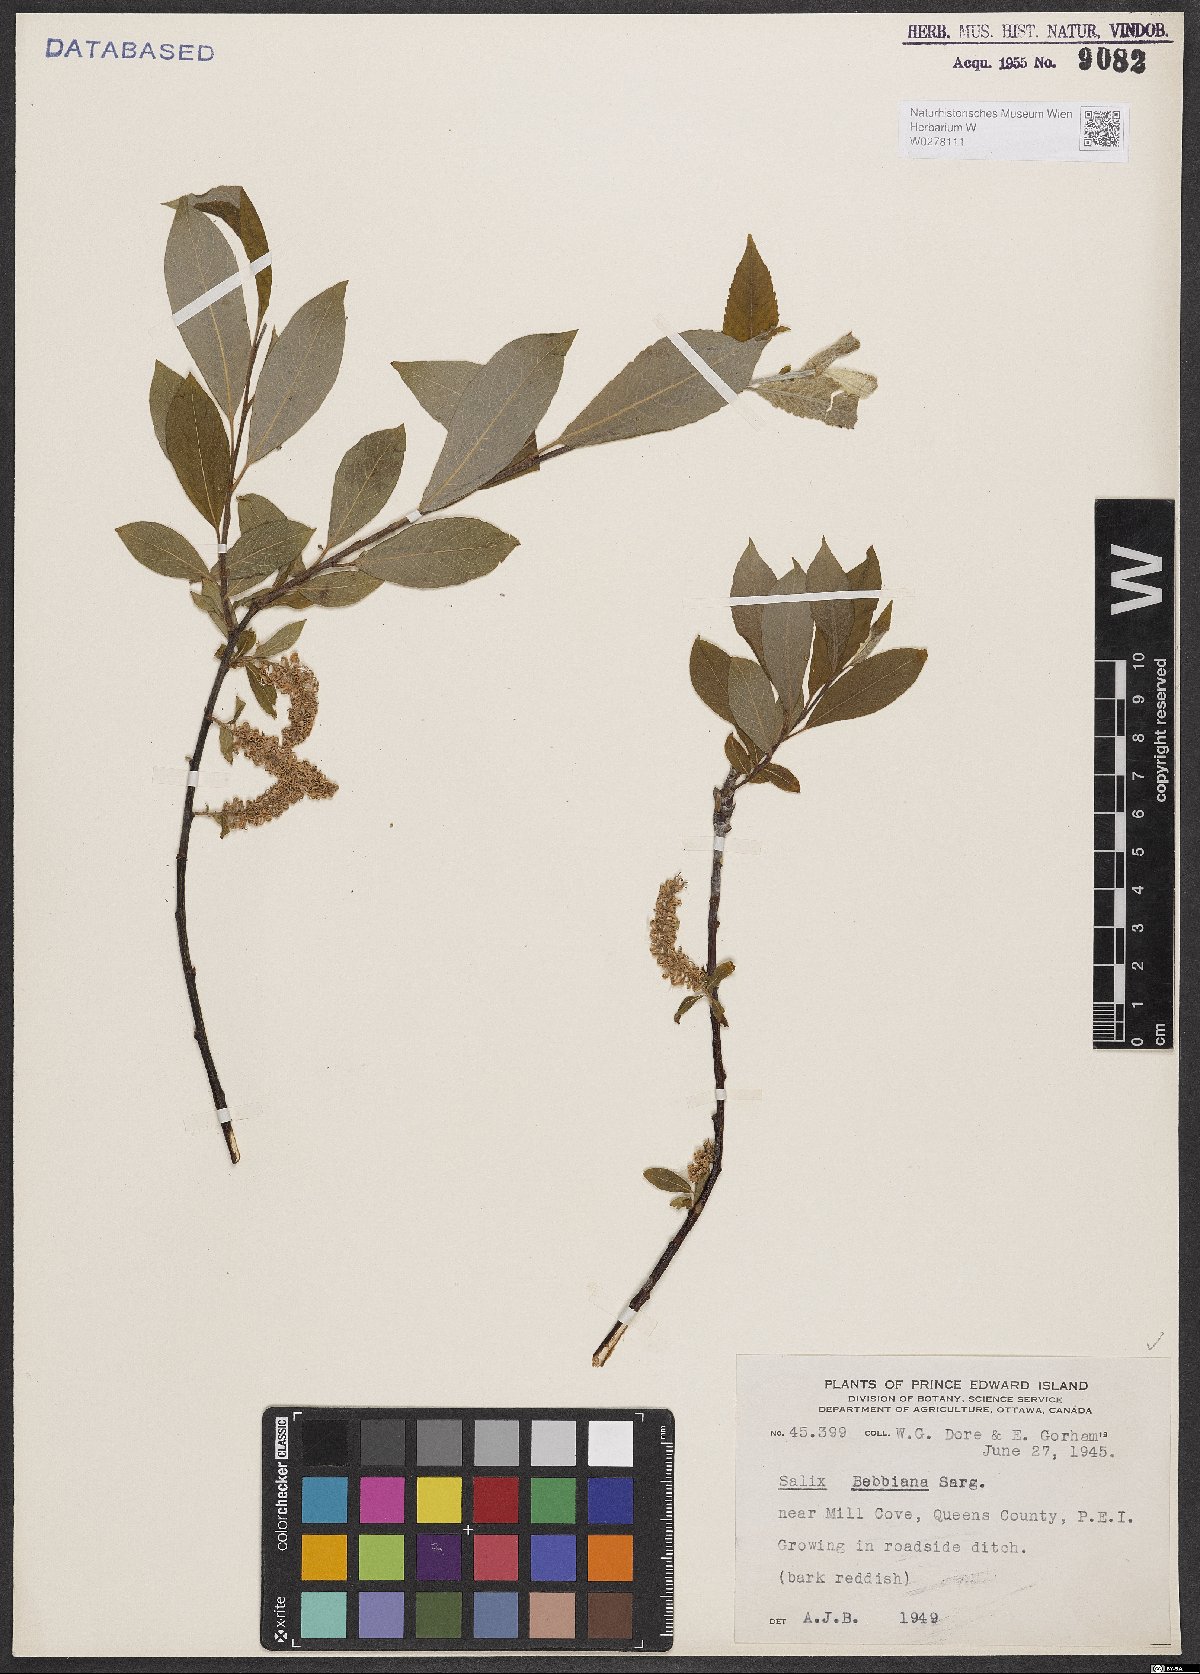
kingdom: Plantae
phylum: Tracheophyta
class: Magnoliopsida
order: Malpighiales
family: Salicaceae
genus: Salix
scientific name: Salix bebbiana
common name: Bebb's willow
